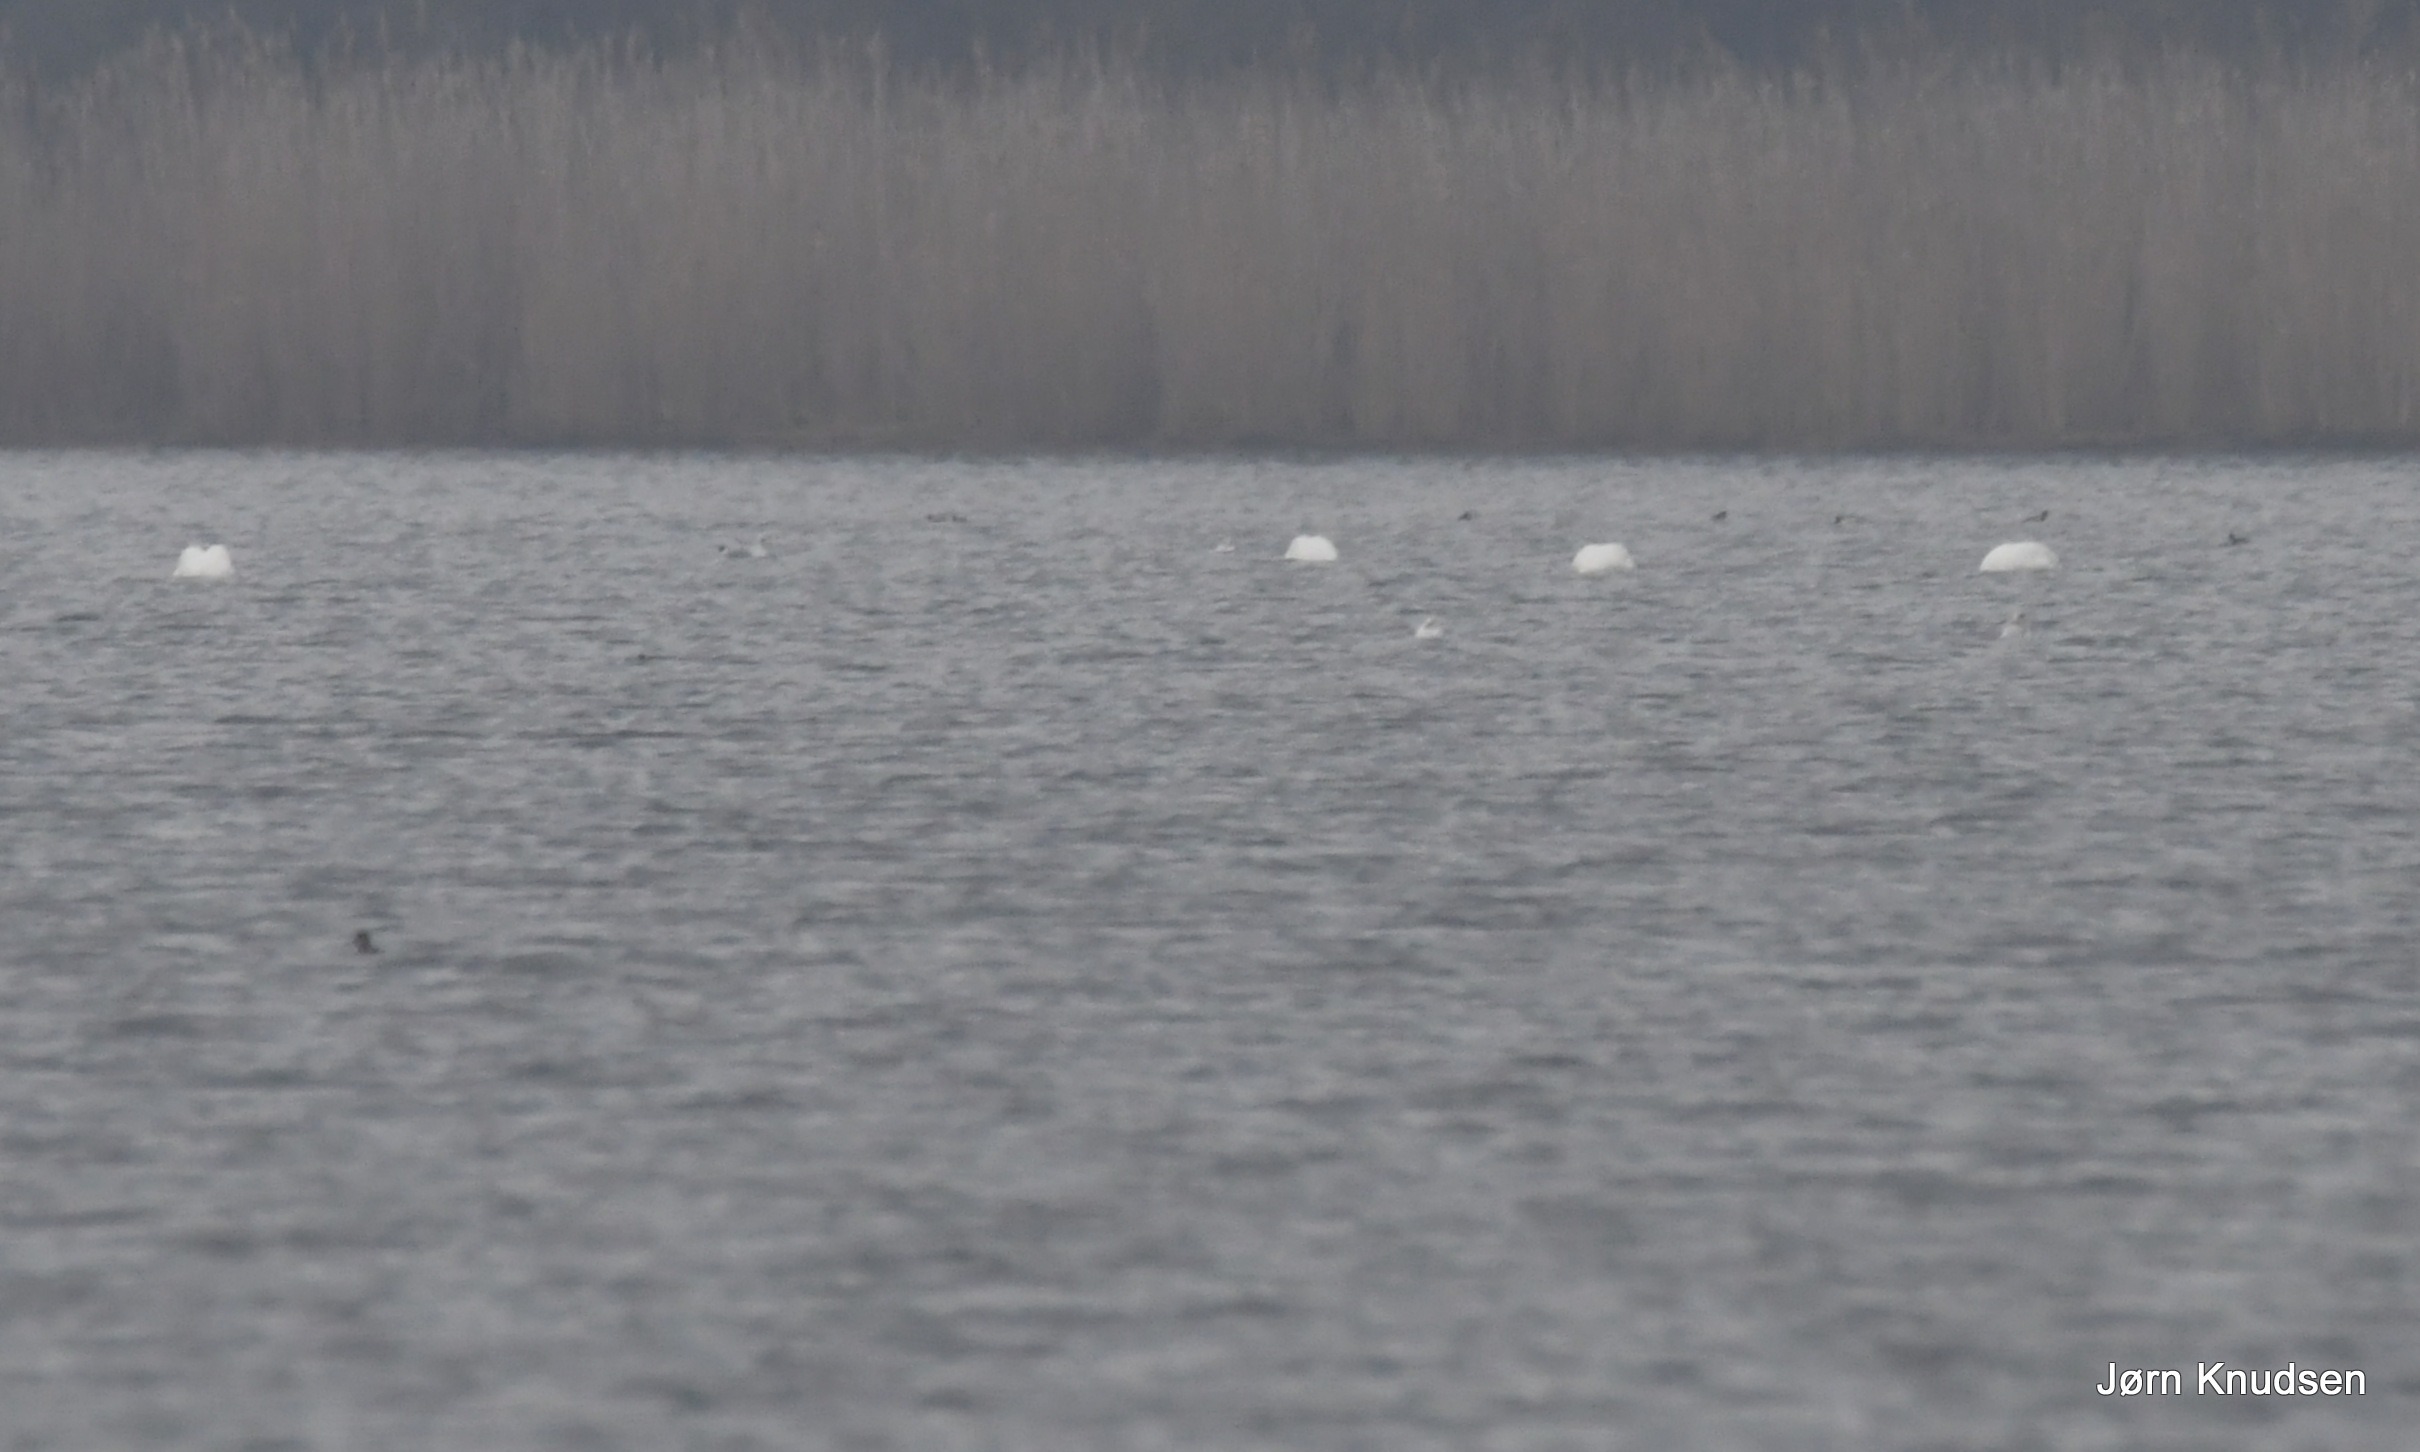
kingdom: Animalia
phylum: Chordata
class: Aves
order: Anseriformes
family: Anatidae
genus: Cygnus
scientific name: Cygnus olor
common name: Knopsvane
